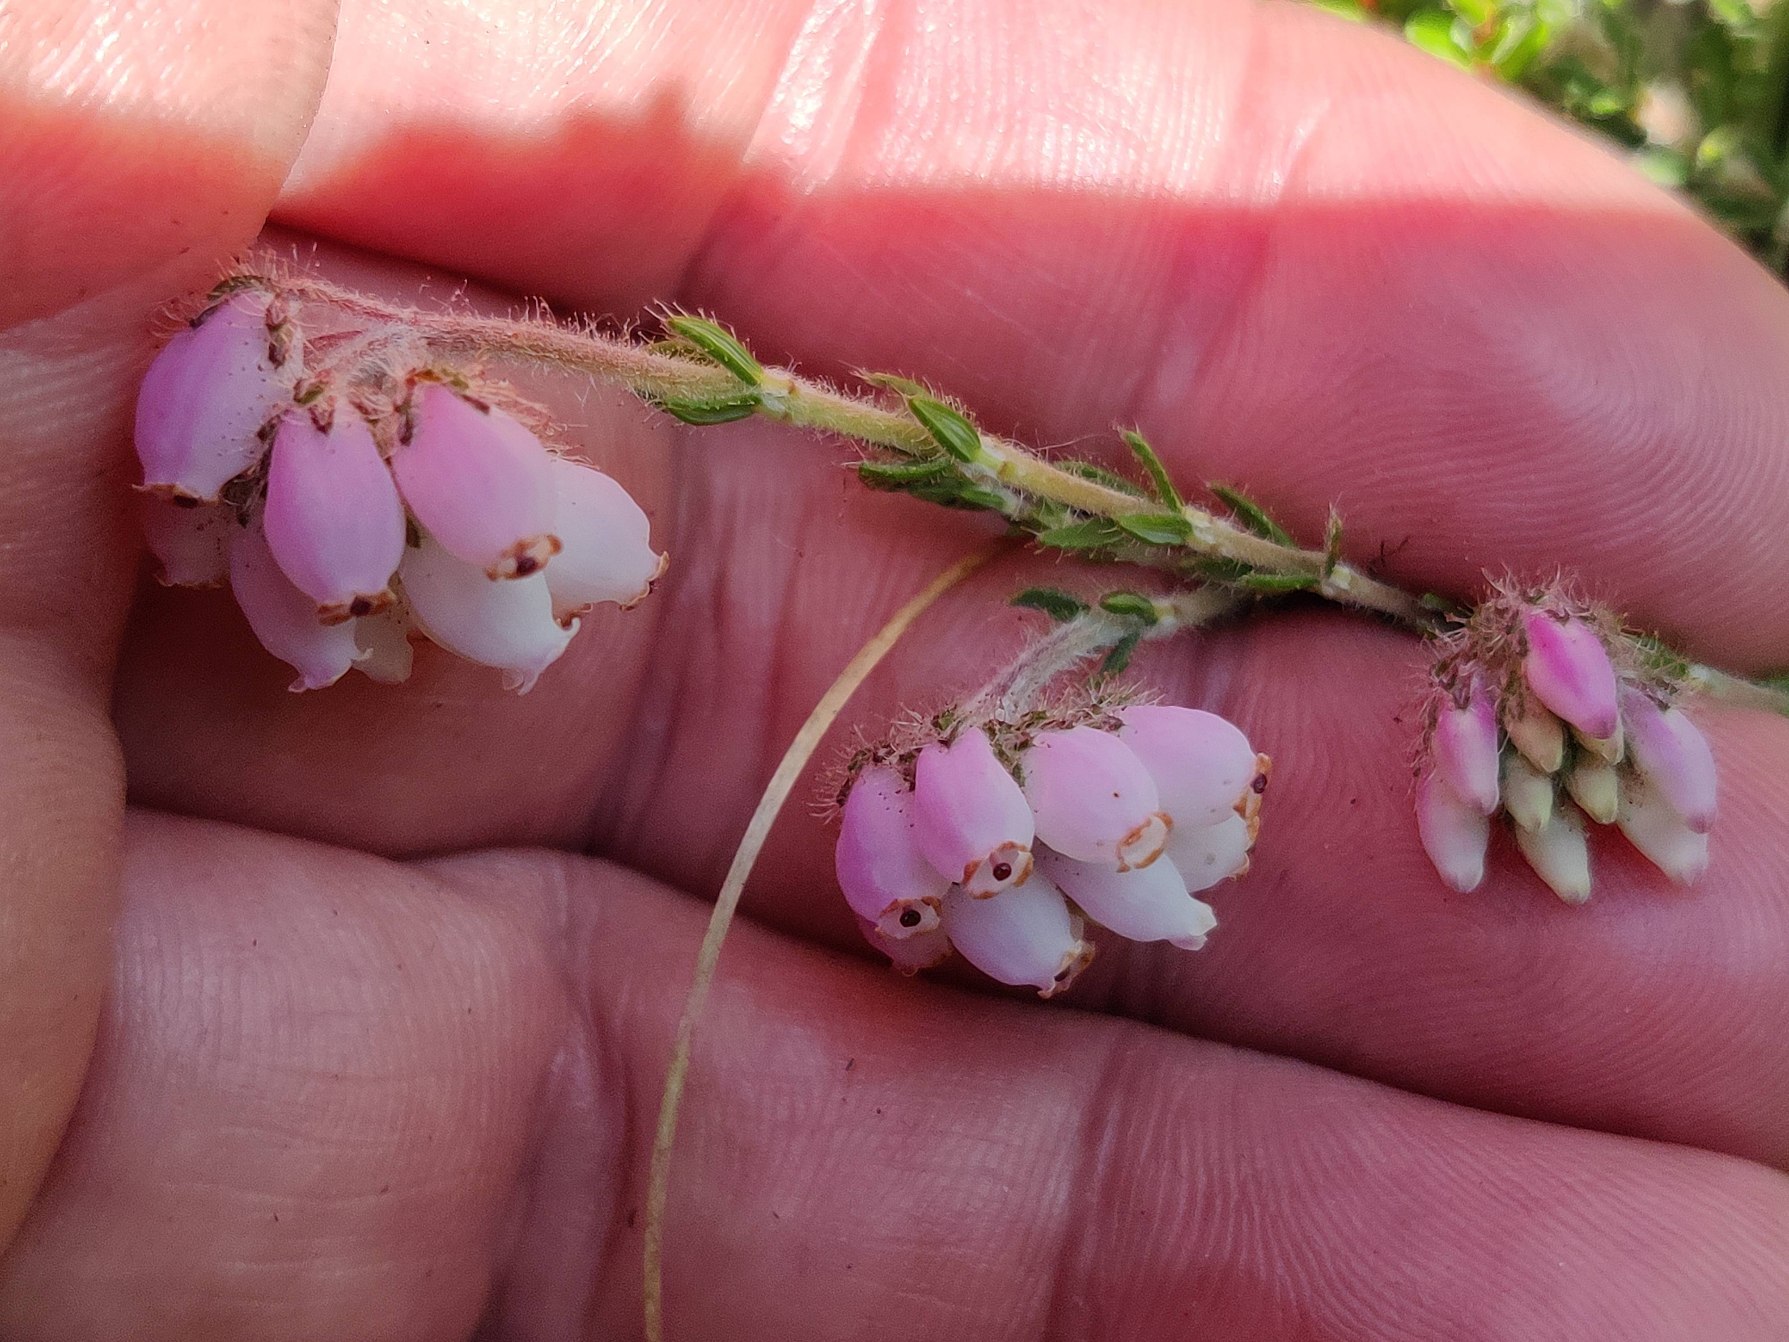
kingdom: Plantae
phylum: Tracheophyta
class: Magnoliopsida
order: Ericales
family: Ericaceae
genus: Erica
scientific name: Erica tetralix
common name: Klokkelyng
